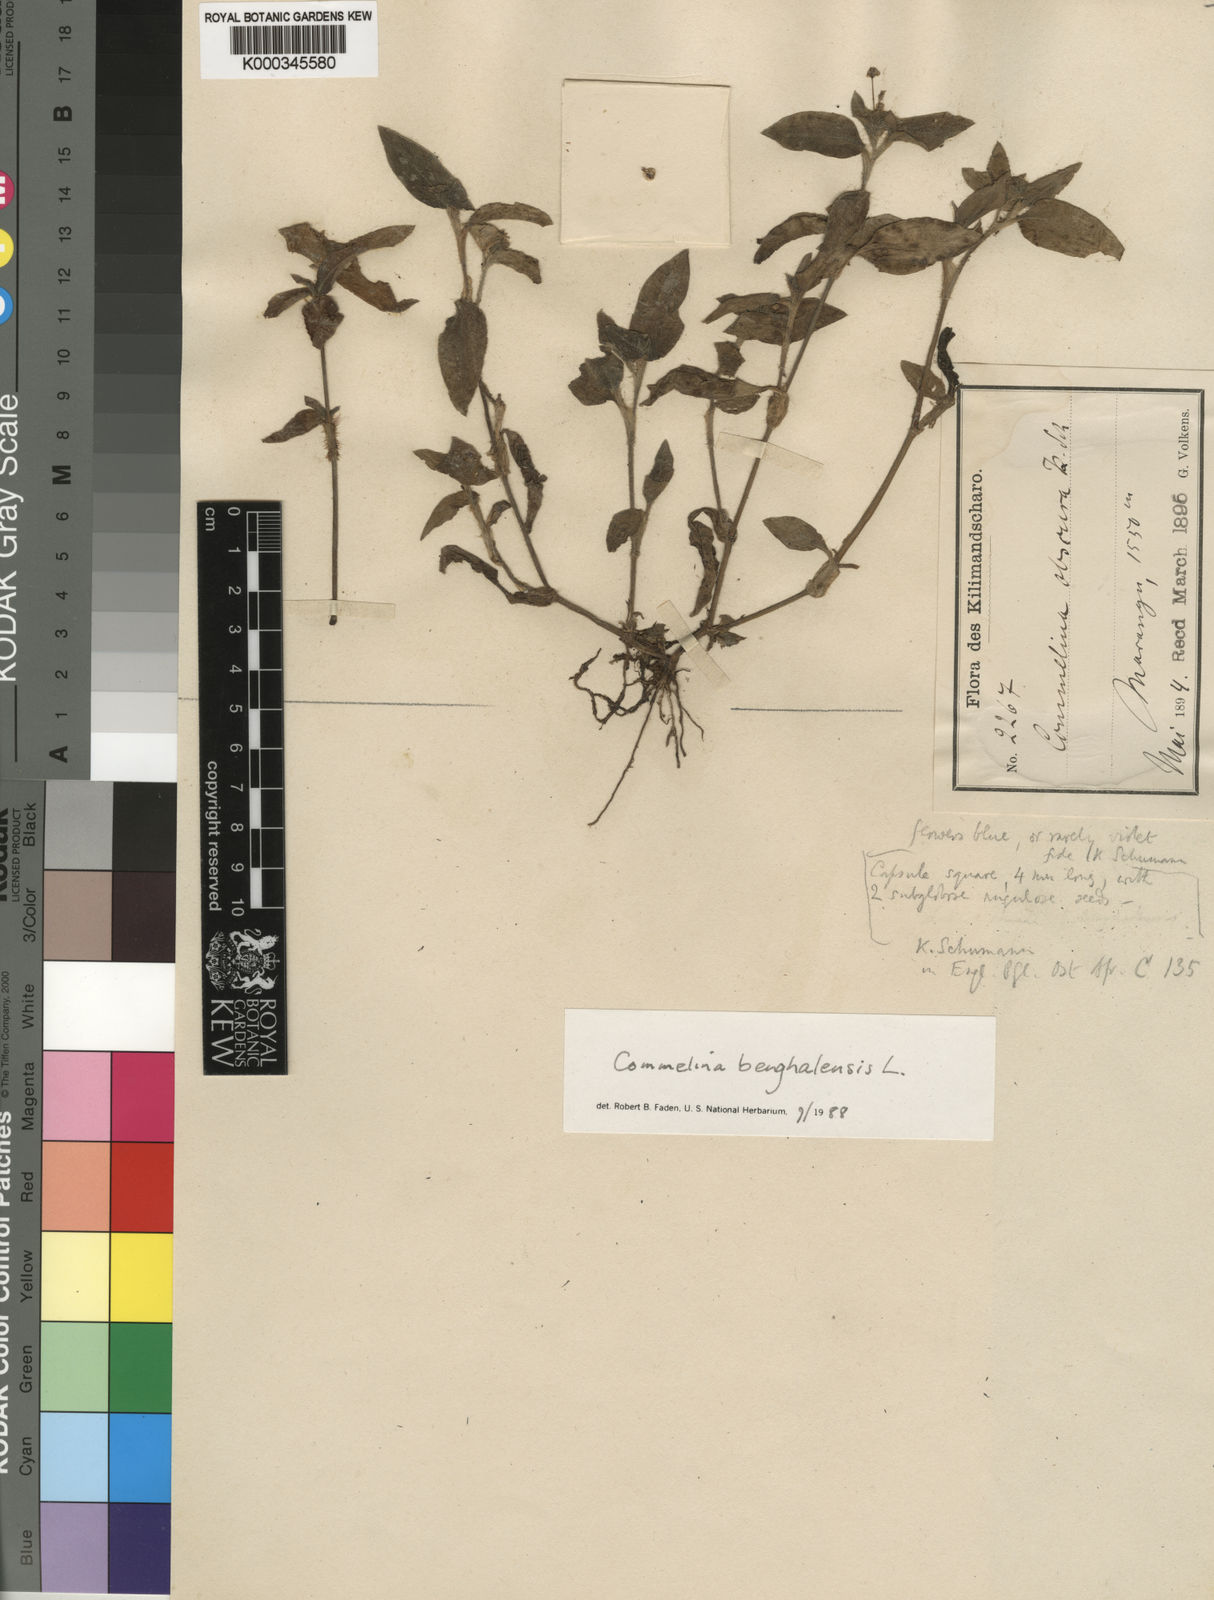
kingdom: Plantae
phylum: Tracheophyta
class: Liliopsida
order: Commelinales
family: Commelinaceae
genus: Commelina
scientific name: Commelina benghalensis
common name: Jio
